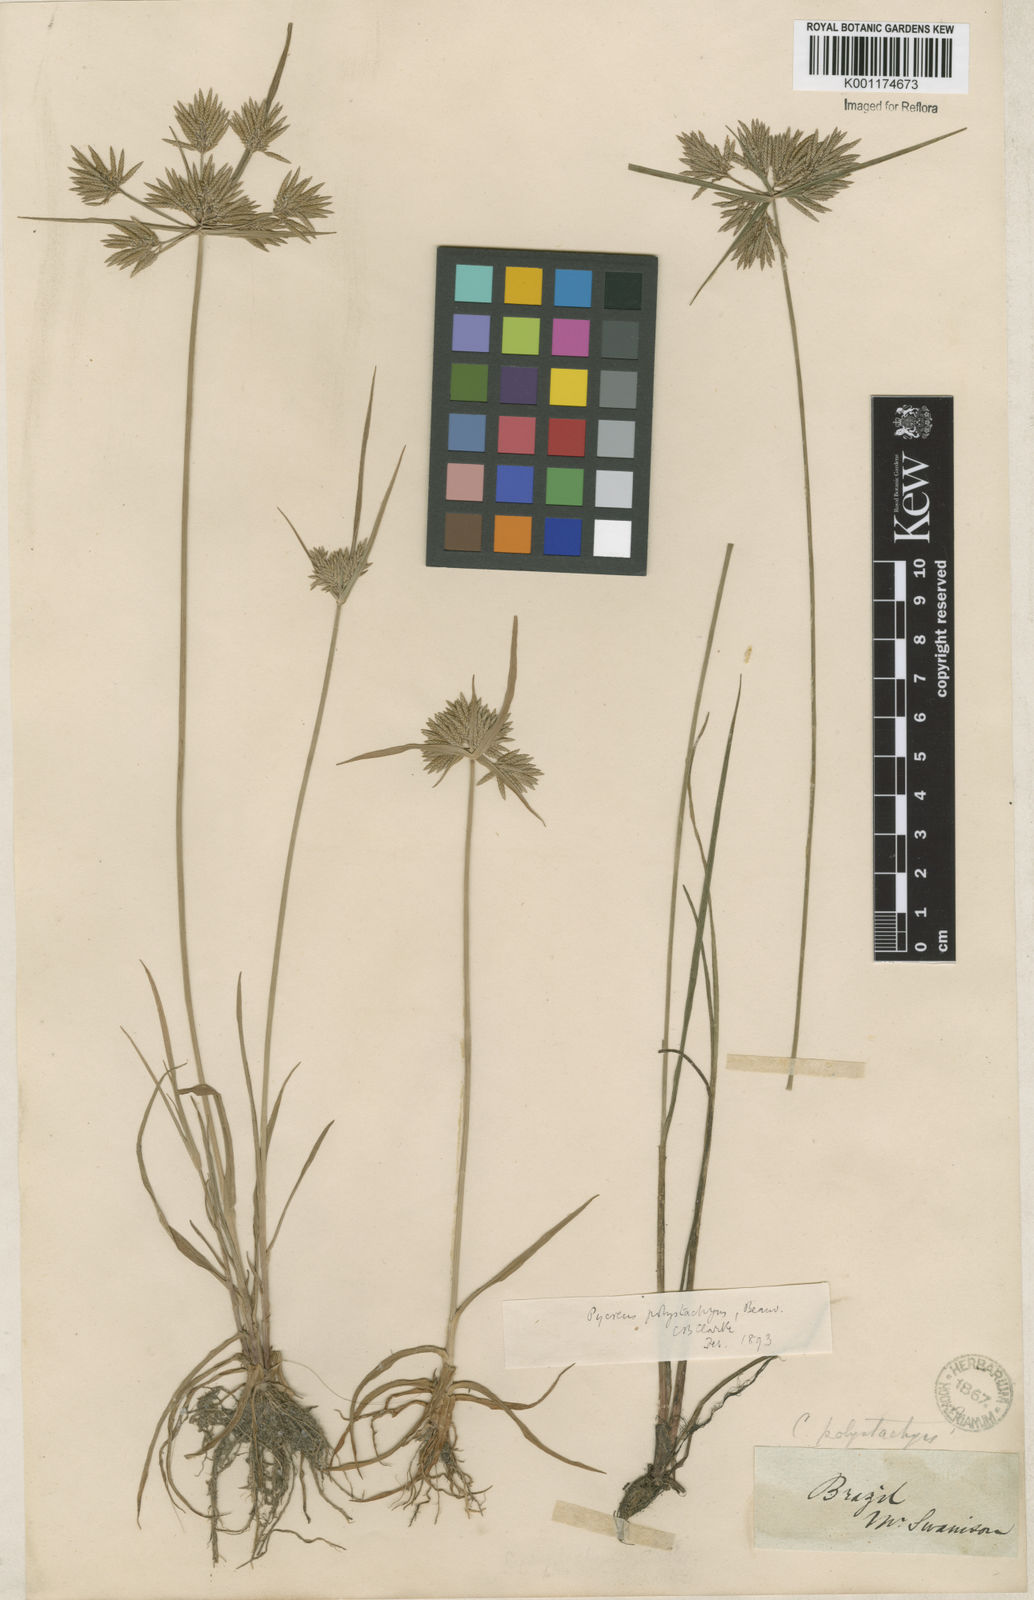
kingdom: Plantae
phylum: Tracheophyta
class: Liliopsida
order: Poales
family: Cyperaceae
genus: Cyperus
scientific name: Cyperus polystachyos
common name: Bunchy flat sedge
